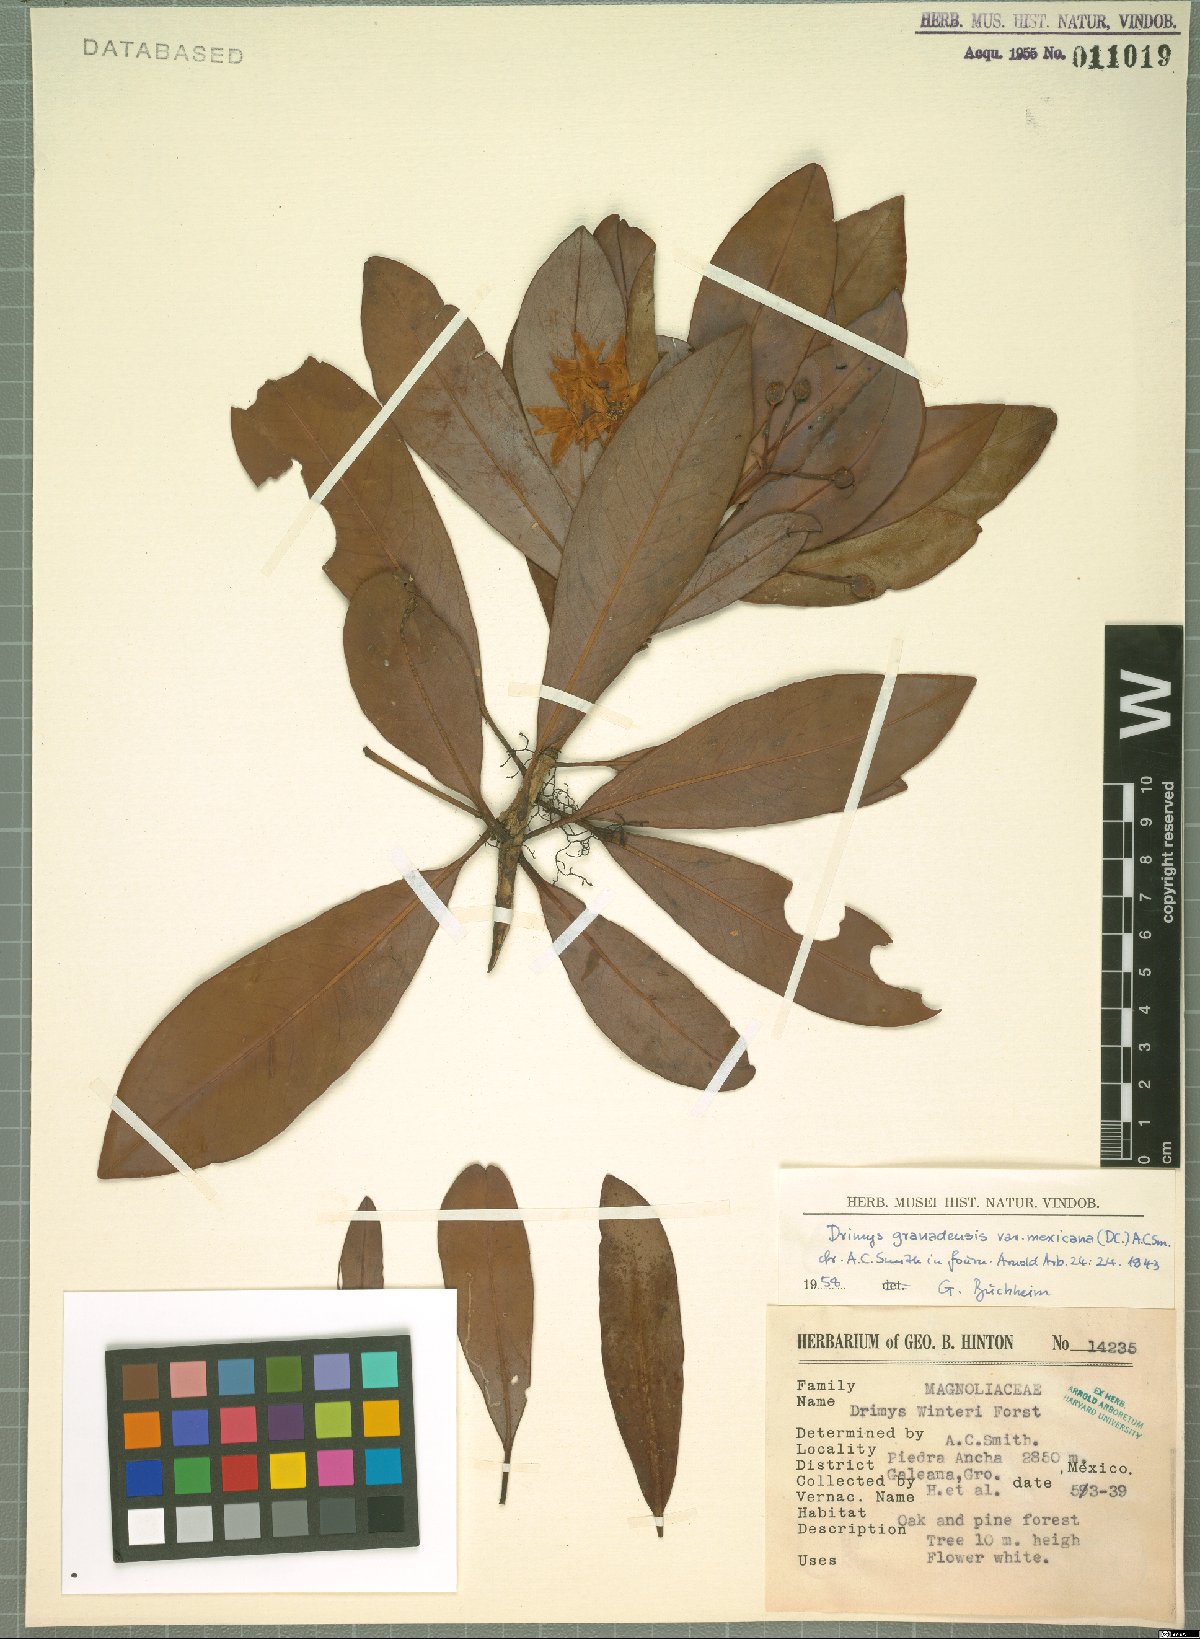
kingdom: Plantae
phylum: Tracheophyta
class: Magnoliopsida
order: Canellales
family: Winteraceae
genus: Drimys
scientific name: Drimys granadensis
